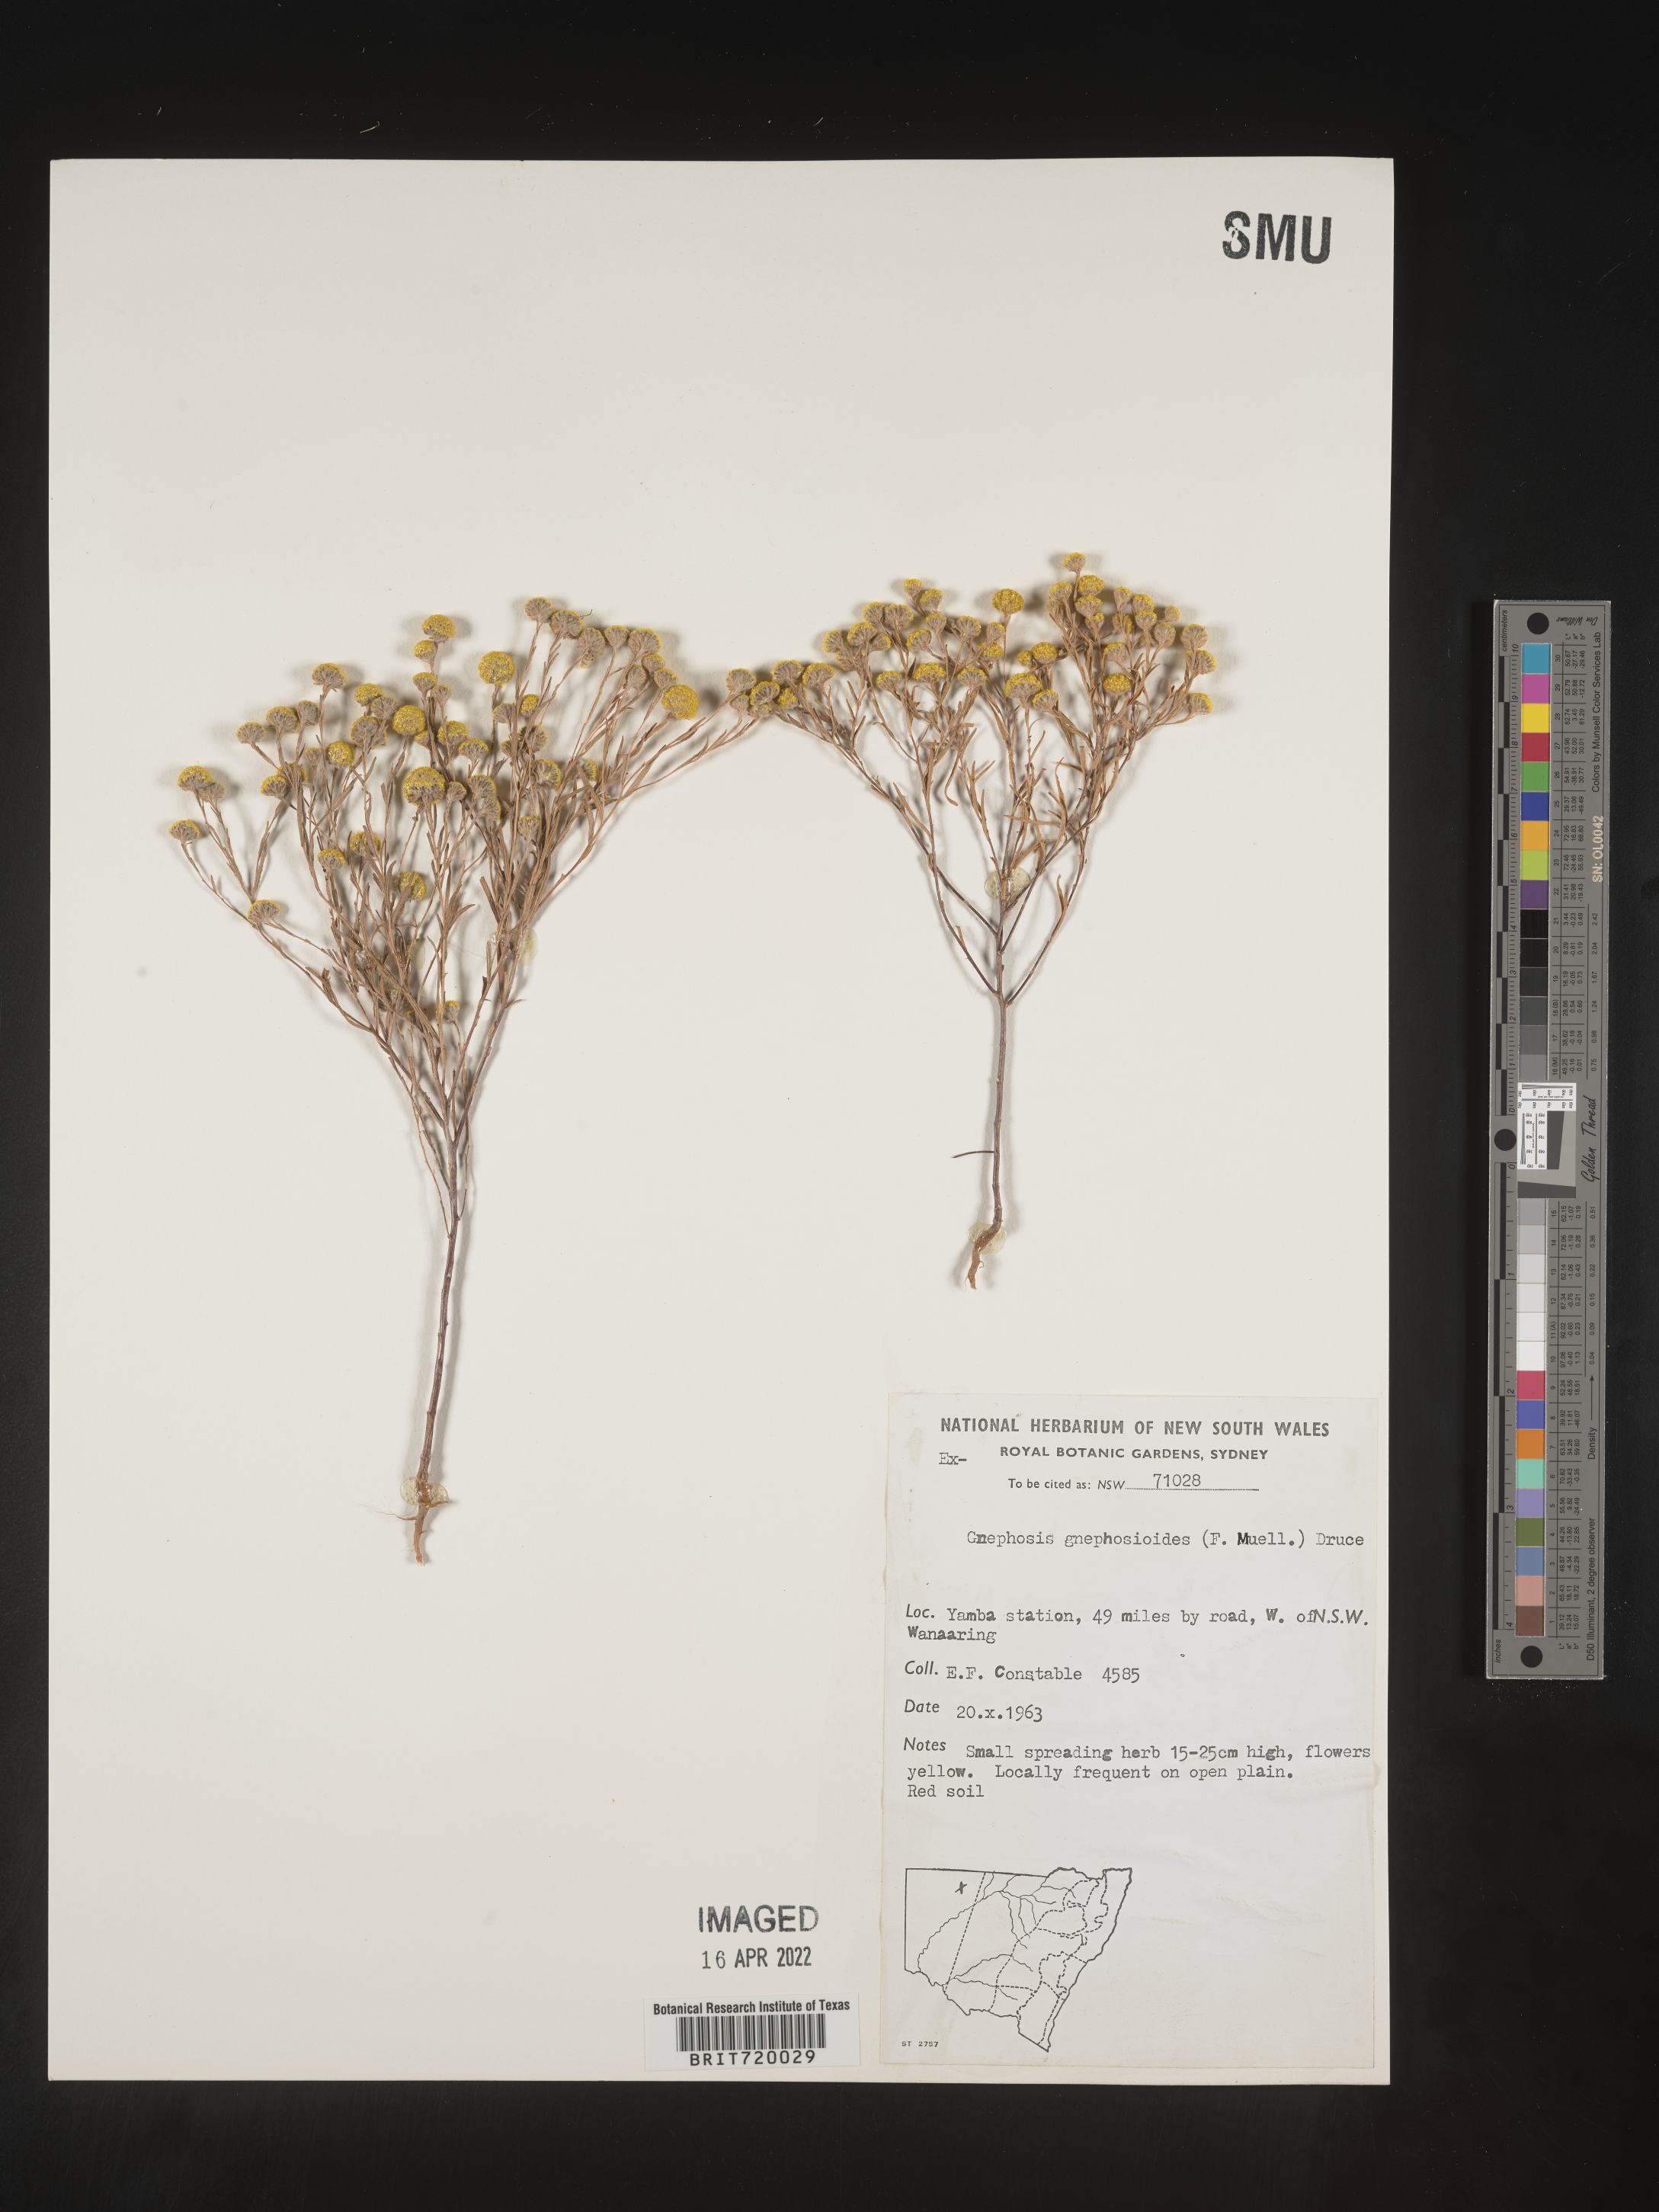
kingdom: Plantae
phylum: Tracheophyta
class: Magnoliopsida
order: Asterales
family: Asteraceae
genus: Gnephosis
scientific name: Gnephosis
